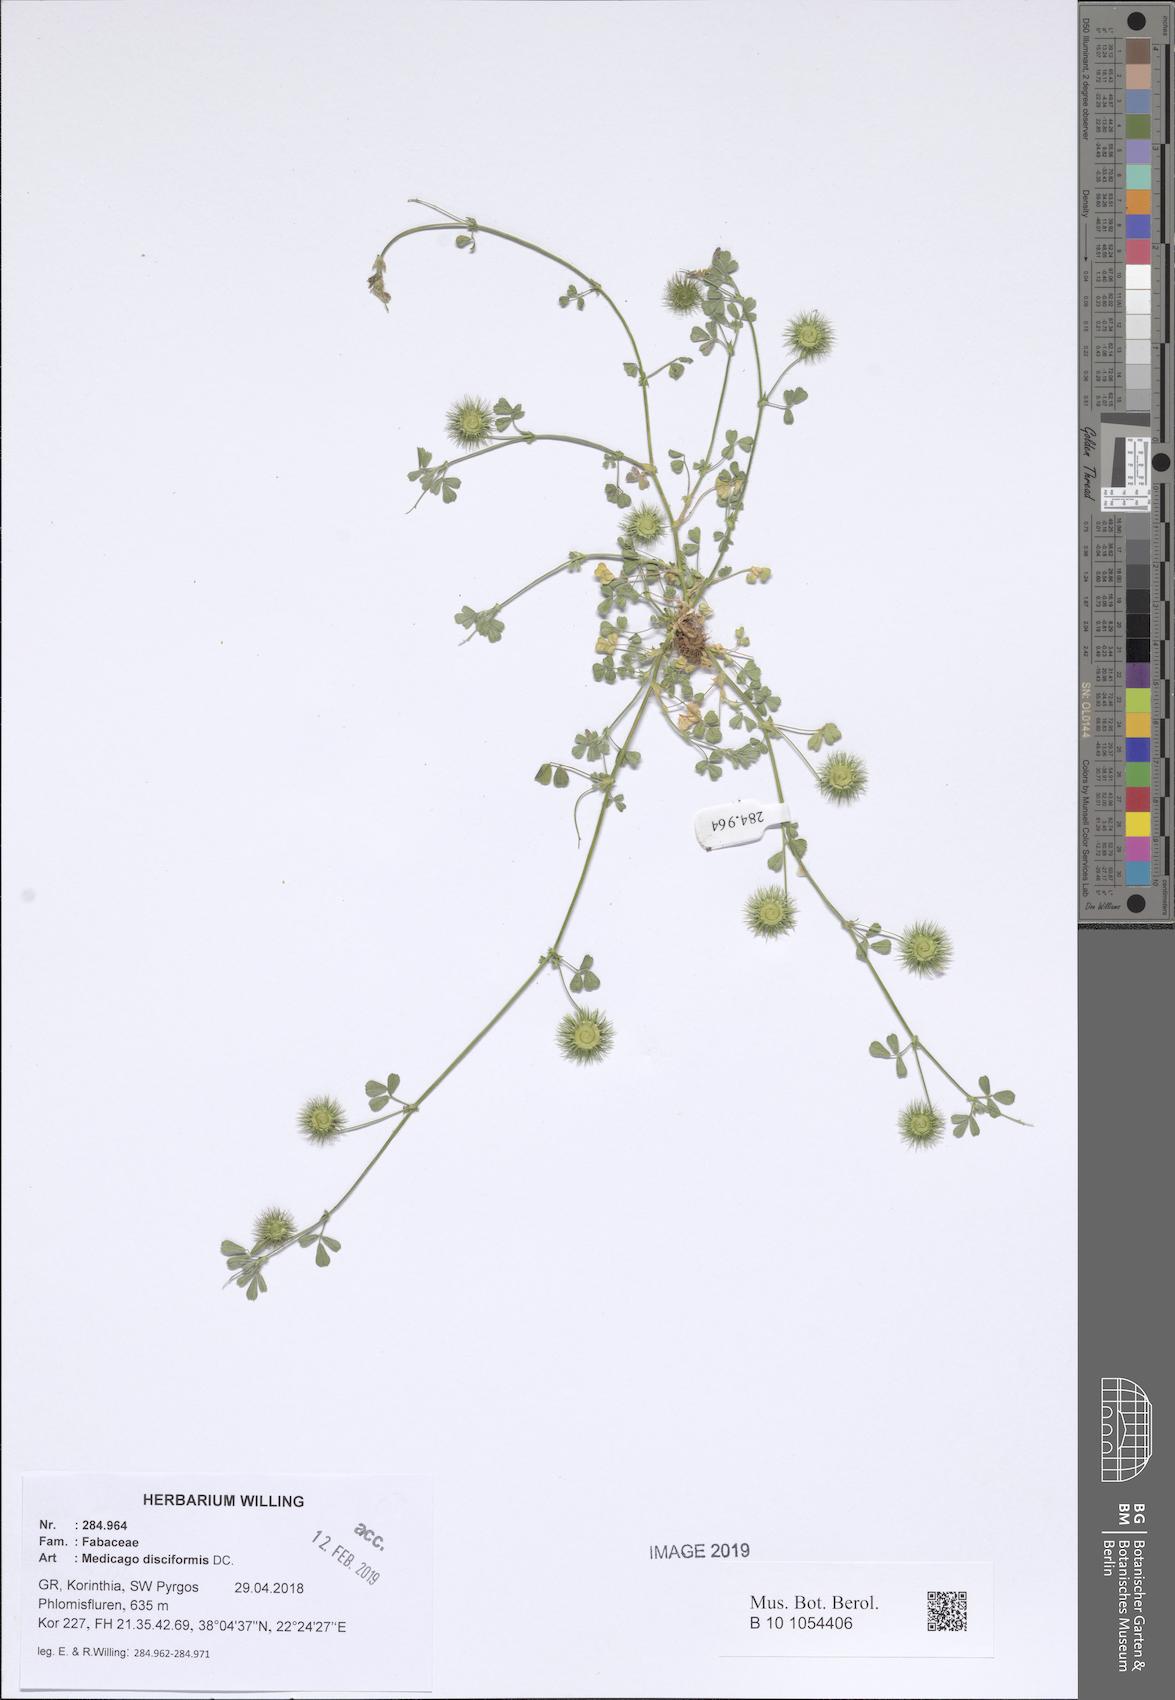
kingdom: Plantae
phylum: Tracheophyta
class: Magnoliopsida
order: Fabales
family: Fabaceae
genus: Medicago
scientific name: Medicago disciformis
